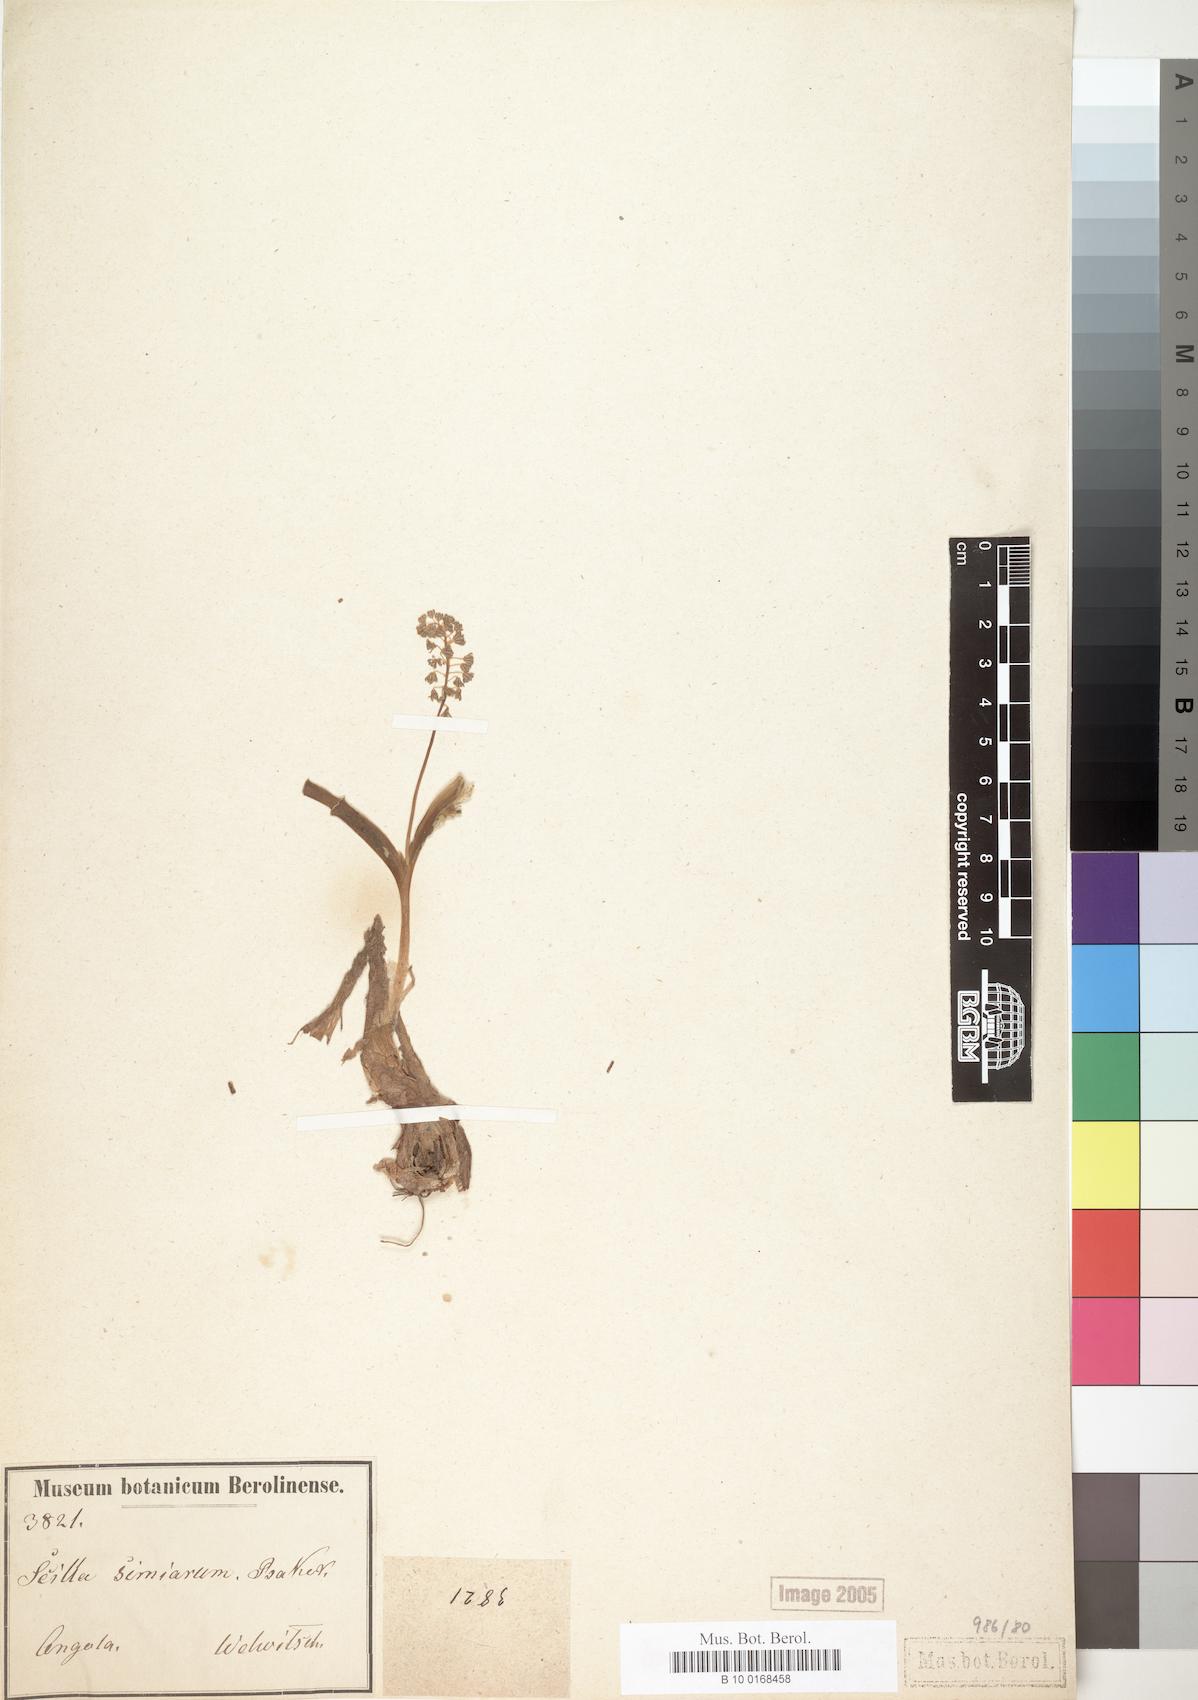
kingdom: Plantae
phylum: Tracheophyta
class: Liliopsida
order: Asparagales
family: Asparagaceae
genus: Scilla
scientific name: Scilla simiarum
